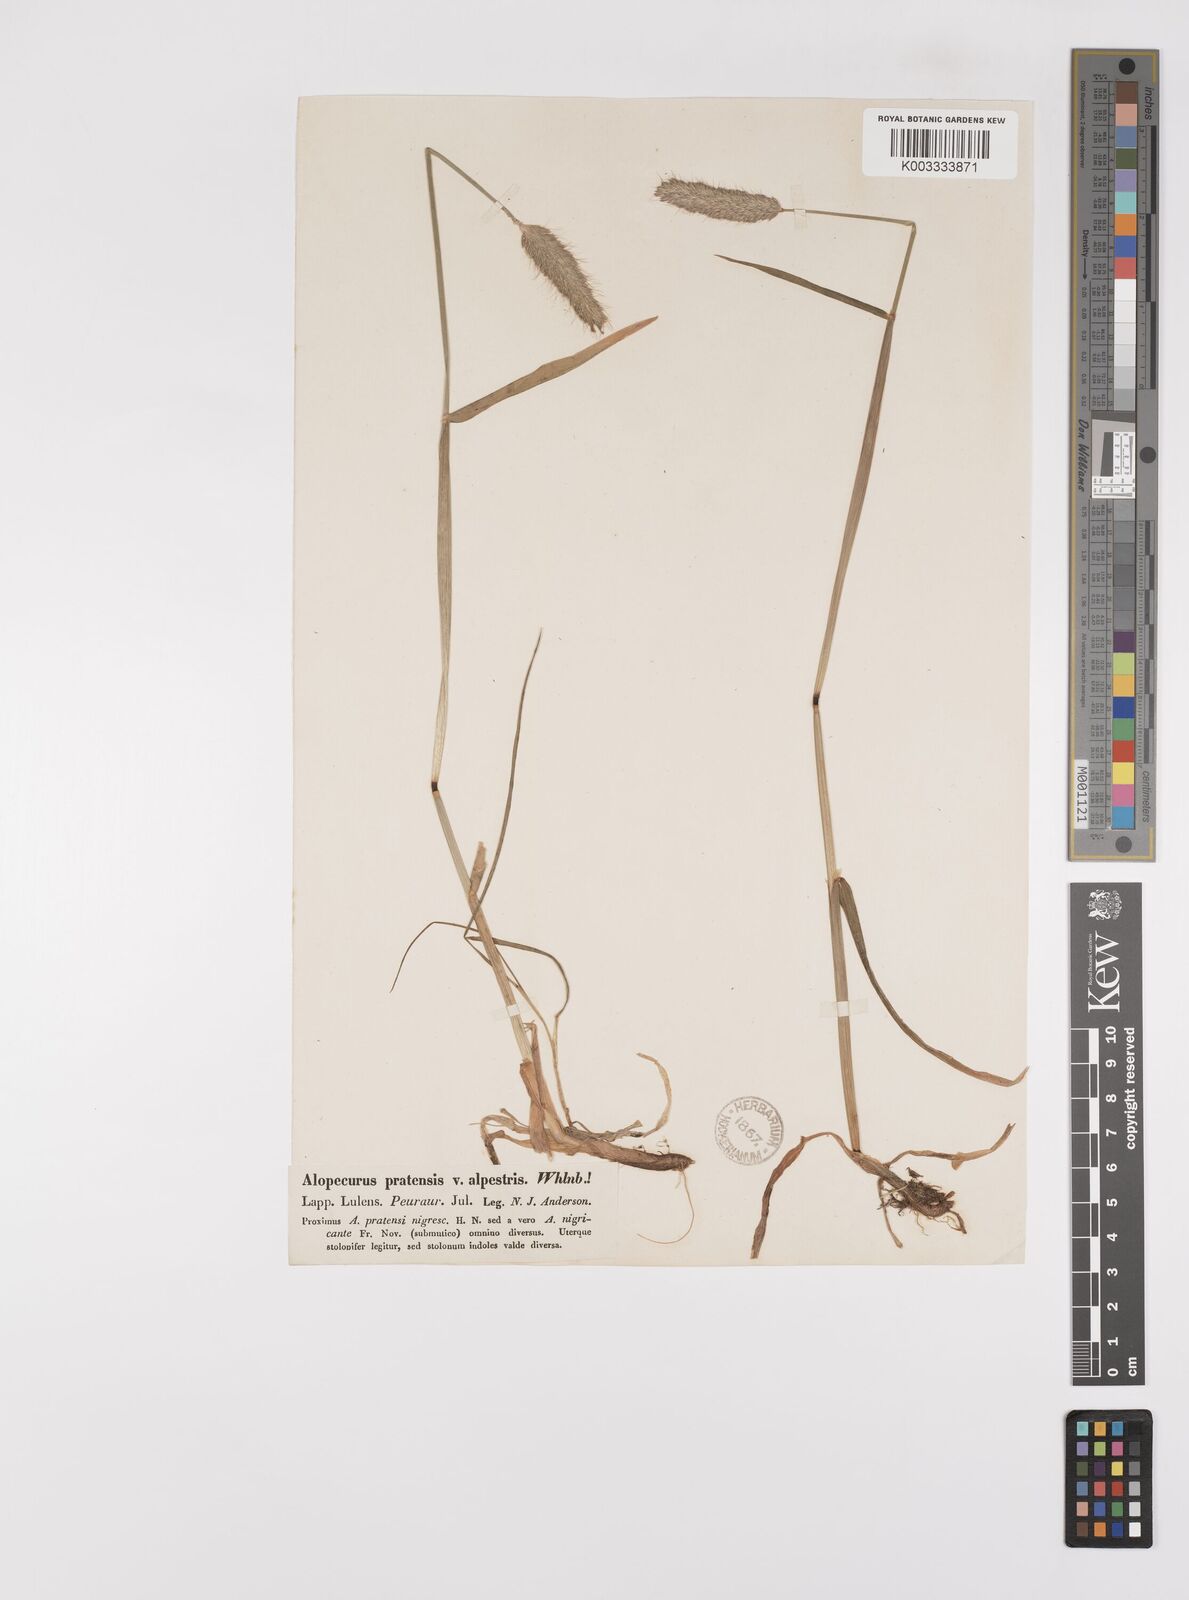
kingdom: Plantae
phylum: Tracheophyta
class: Liliopsida
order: Poales
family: Poaceae
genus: Alopecurus
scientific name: Alopecurus pratensis
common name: Meadow foxtail
